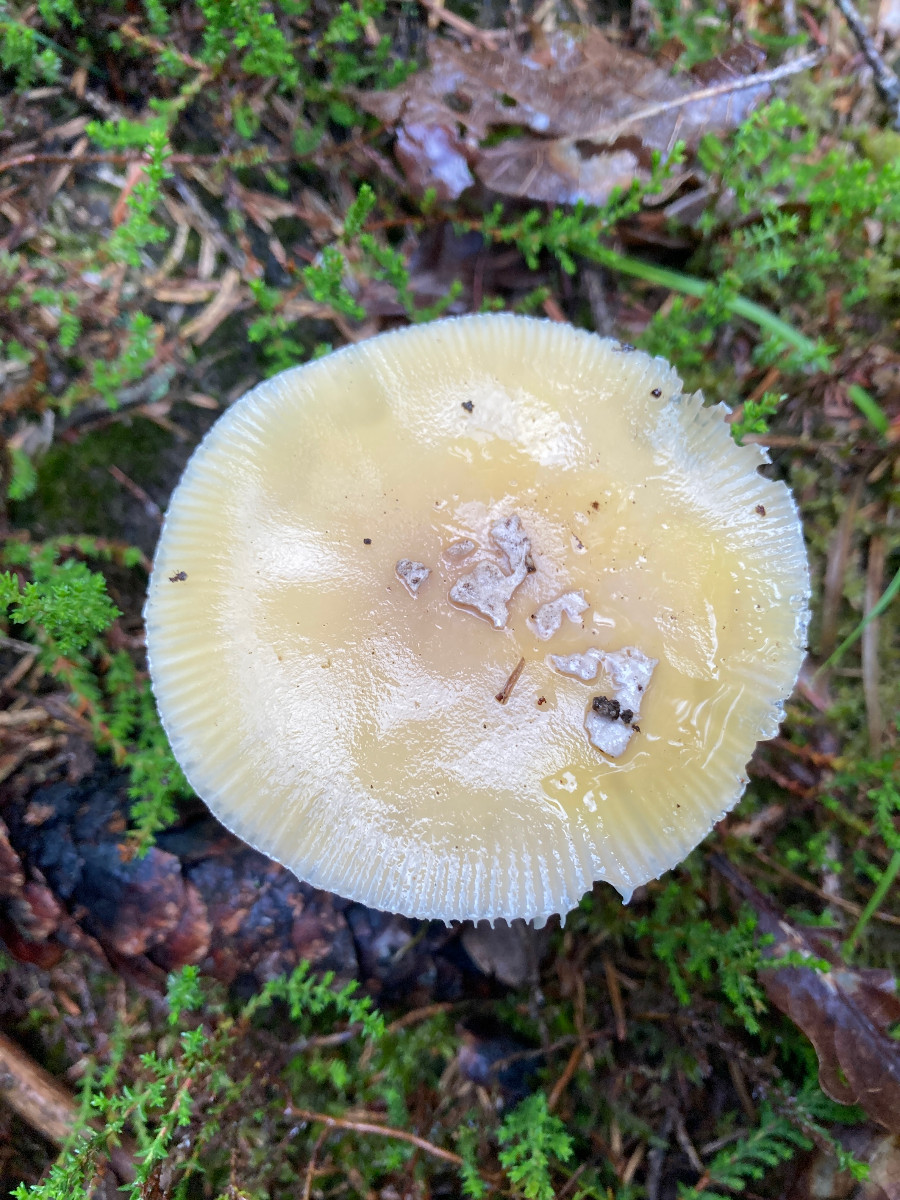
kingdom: Fungi
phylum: Basidiomycota
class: Agaricomycetes
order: Agaricales
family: Amanitaceae
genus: Amanita
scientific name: Amanita gemmata
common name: okkergul fluesvamp
